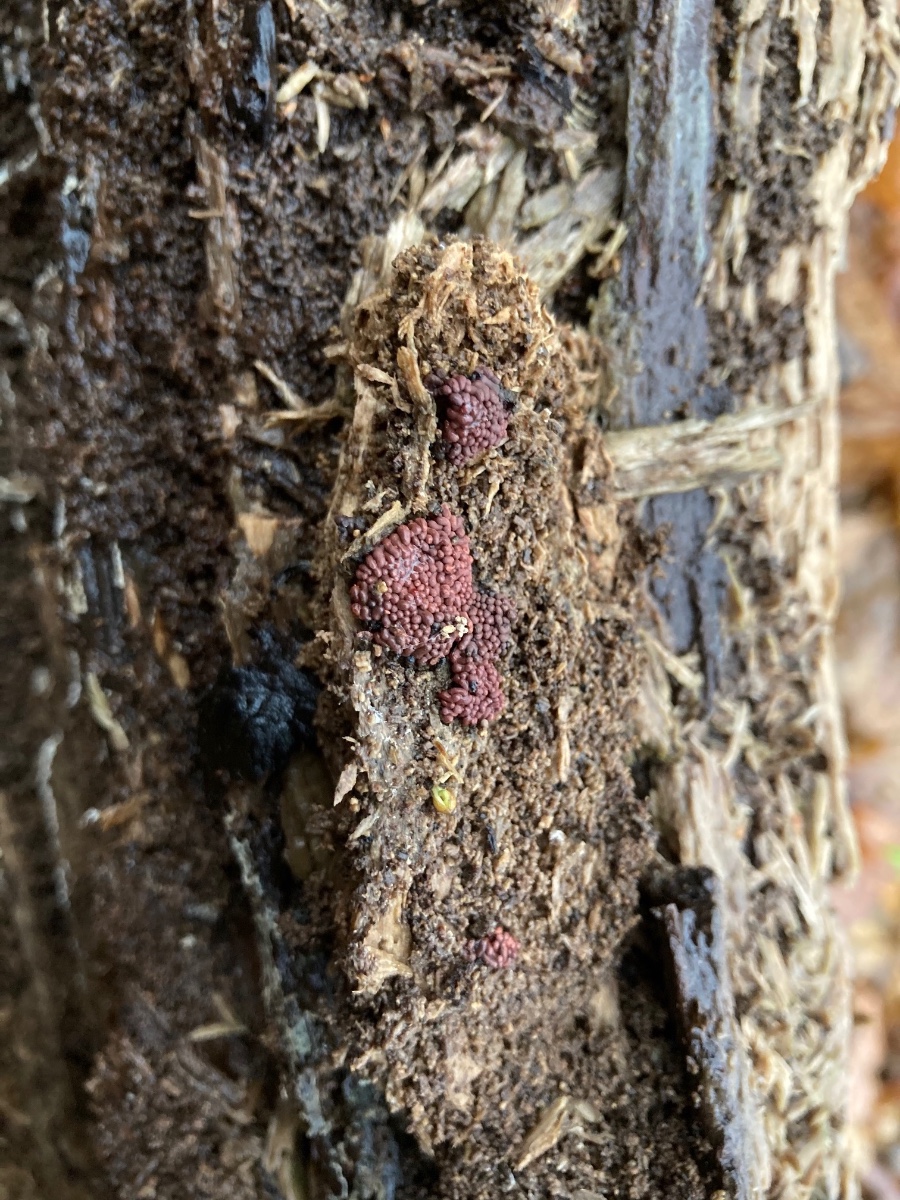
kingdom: Protozoa
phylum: Mycetozoa
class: Myxomycetes
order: Trichiales
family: Arcyriaceae
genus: Arcyria
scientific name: Arcyria stipata
